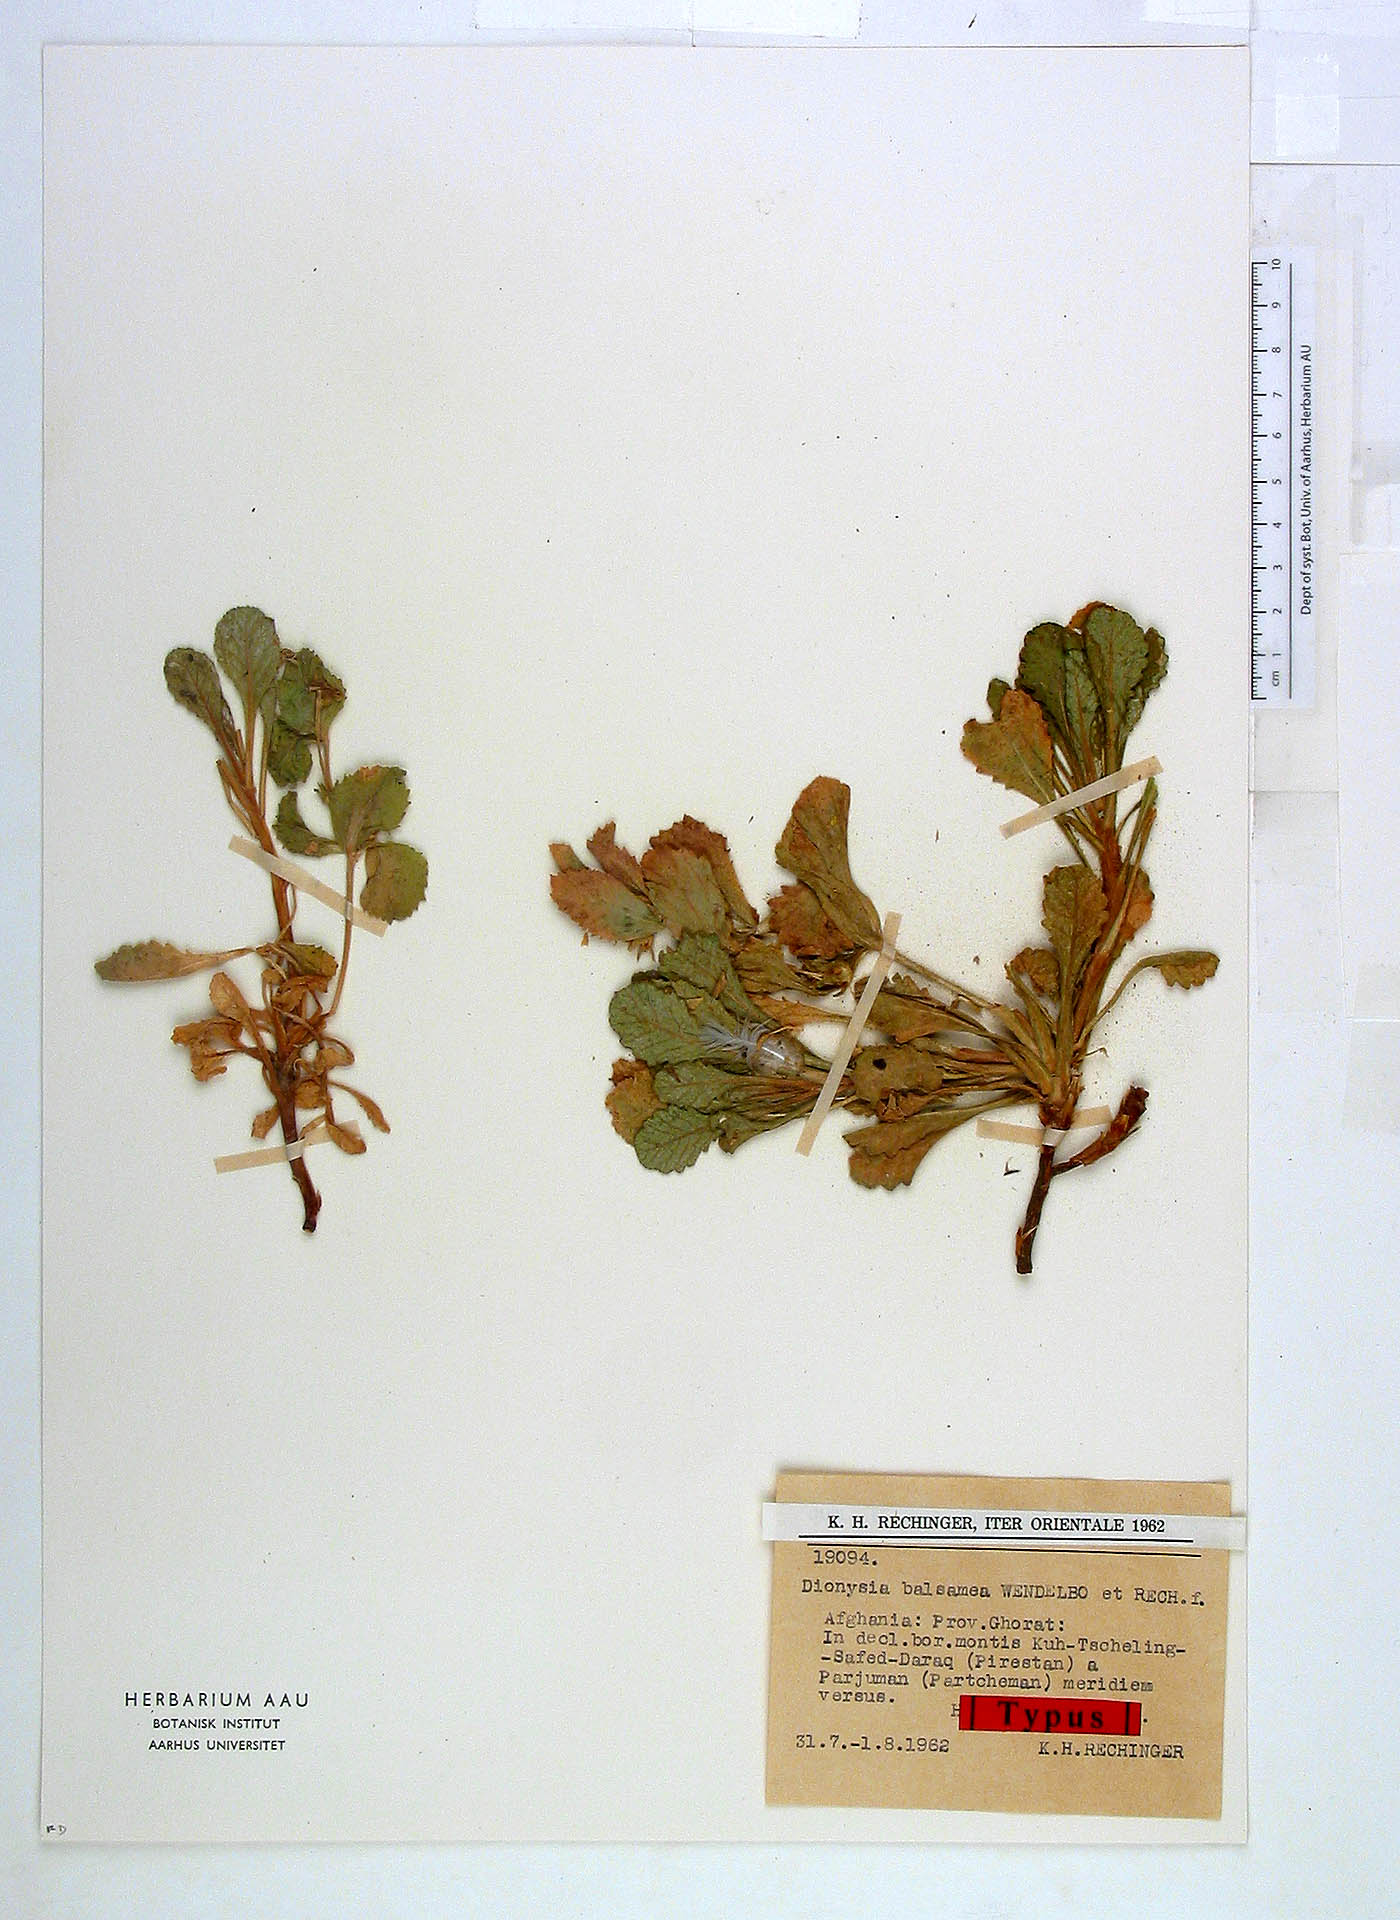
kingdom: Plantae
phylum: Tracheophyta
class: Magnoliopsida
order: Ericales
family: Primulaceae
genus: Dionysia
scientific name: Dionysia balsamea
